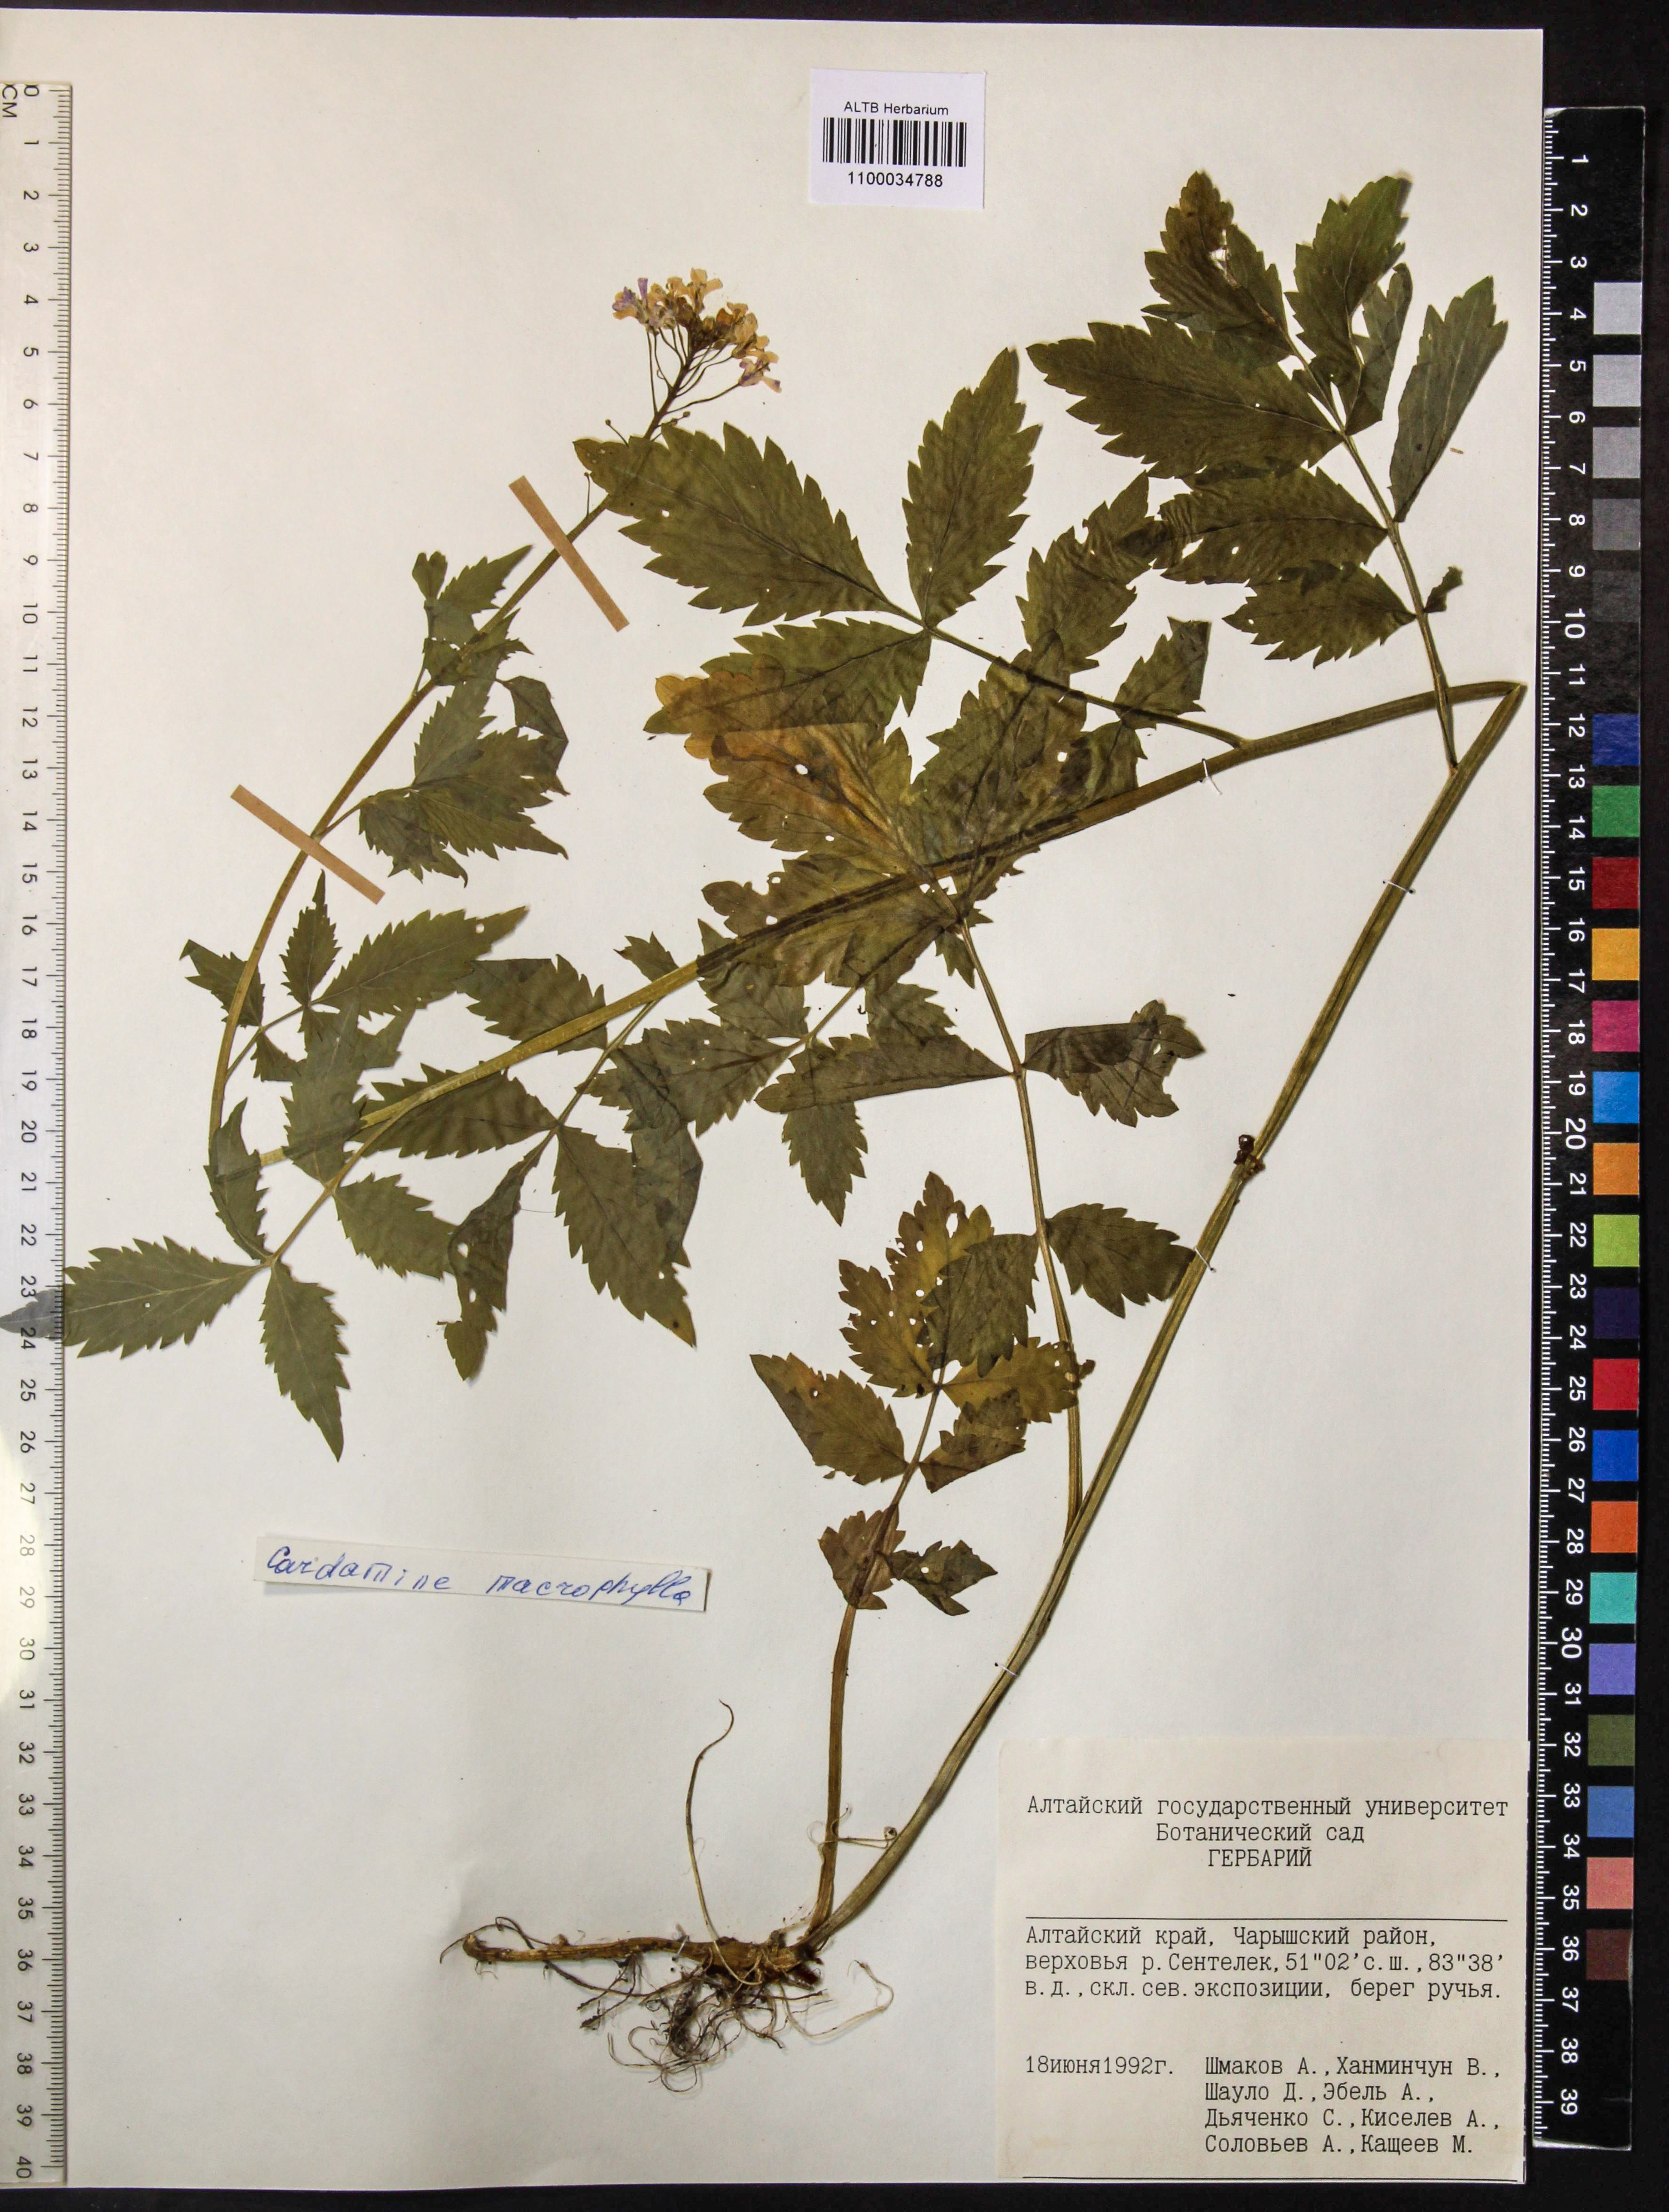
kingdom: Plantae
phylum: Tracheophyta
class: Magnoliopsida
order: Brassicales
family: Brassicaceae
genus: Cardamine
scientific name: Cardamine macrophylla
